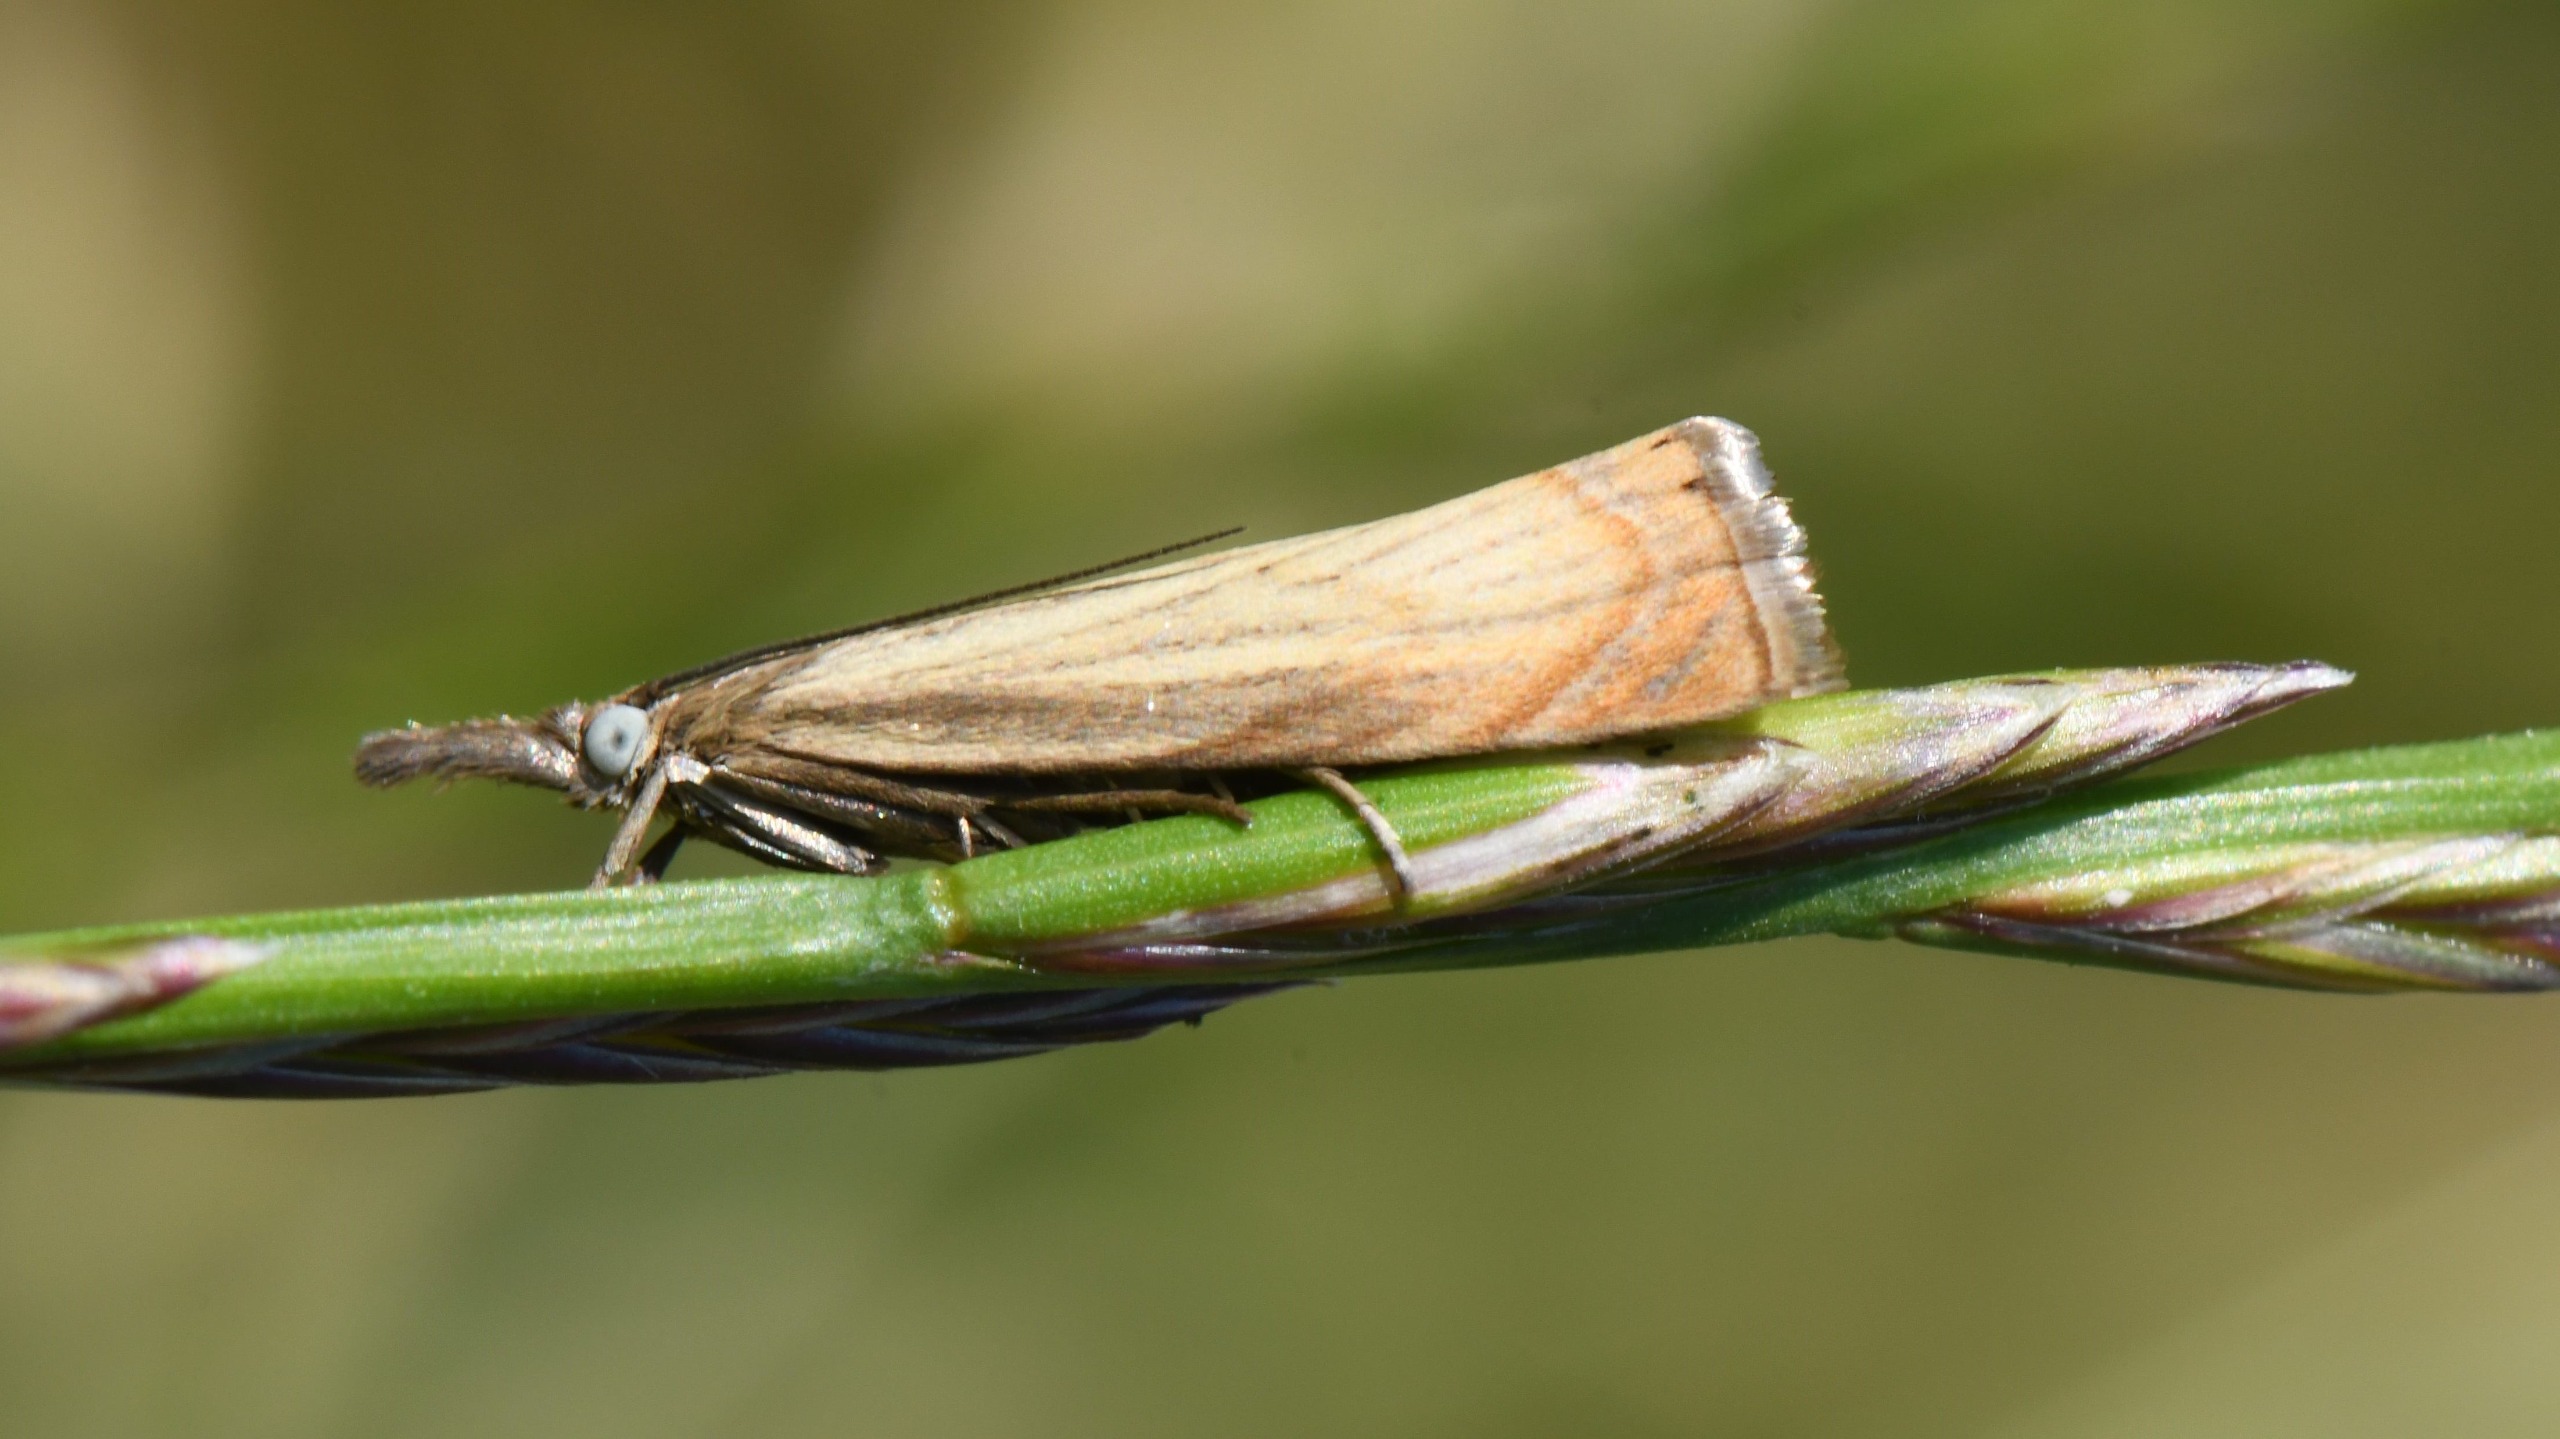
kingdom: Animalia
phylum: Arthropoda
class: Insecta
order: Lepidoptera
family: Crambidae
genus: Chrysoteuchia
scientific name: Chrysoteuchia culmella
